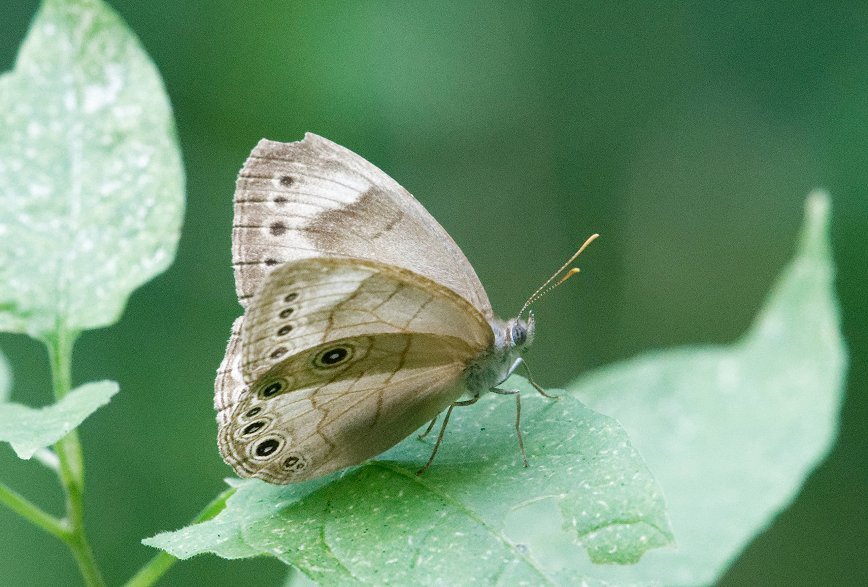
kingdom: Animalia
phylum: Arthropoda
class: Insecta
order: Lepidoptera
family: Nymphalidae
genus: Lethe
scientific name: Lethe eurydice
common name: Appalachian Eyed Brown
